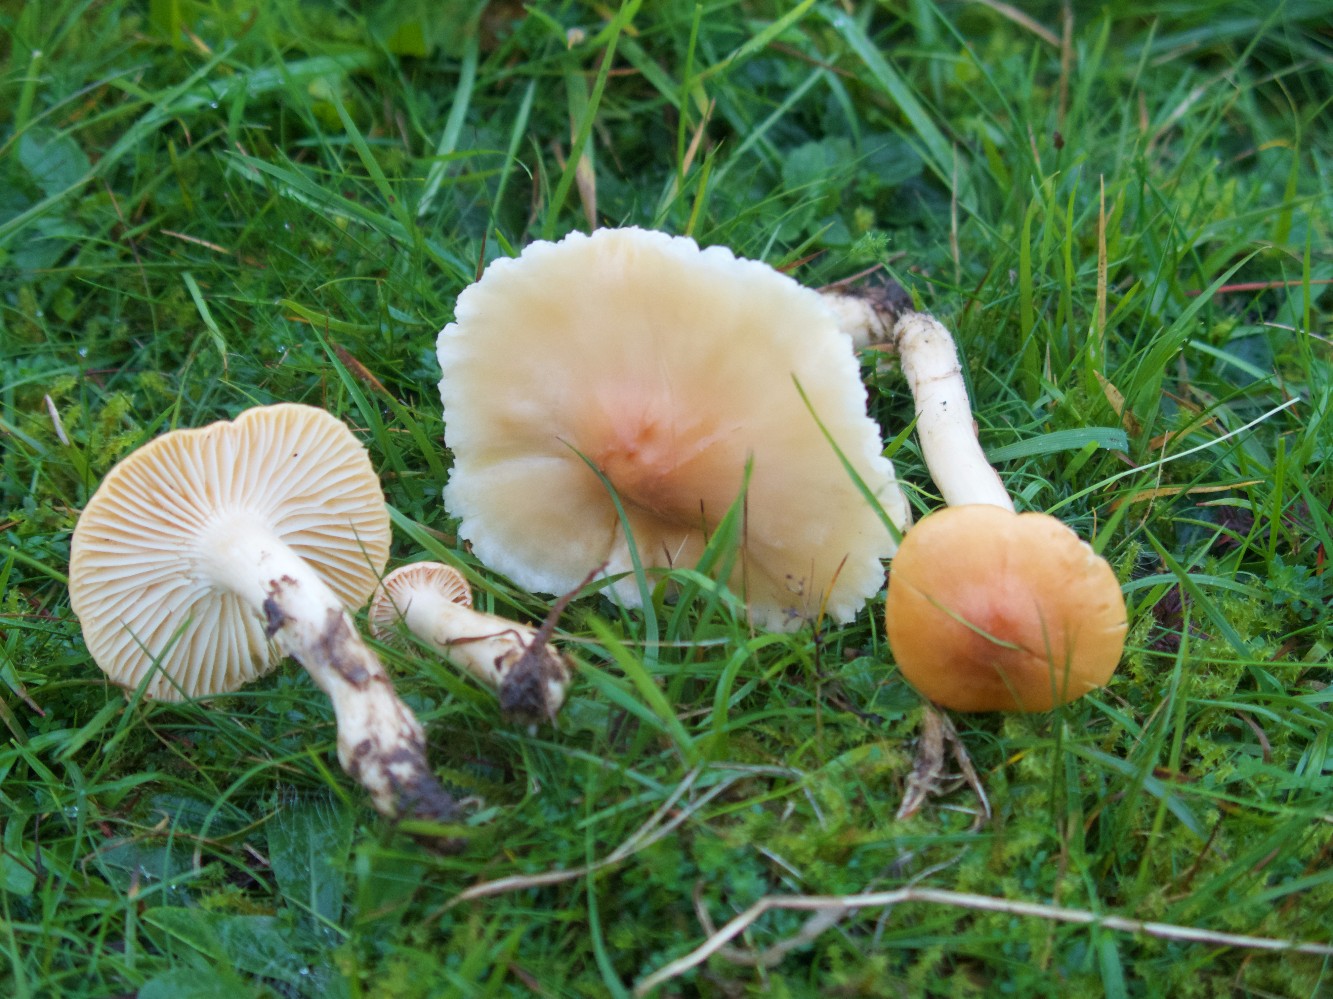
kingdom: Fungi
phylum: Basidiomycota
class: Agaricomycetes
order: Agaricales
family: Hygrophoraceae
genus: Cuphophyllus
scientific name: Cuphophyllus pratensis
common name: eng-vokshat
